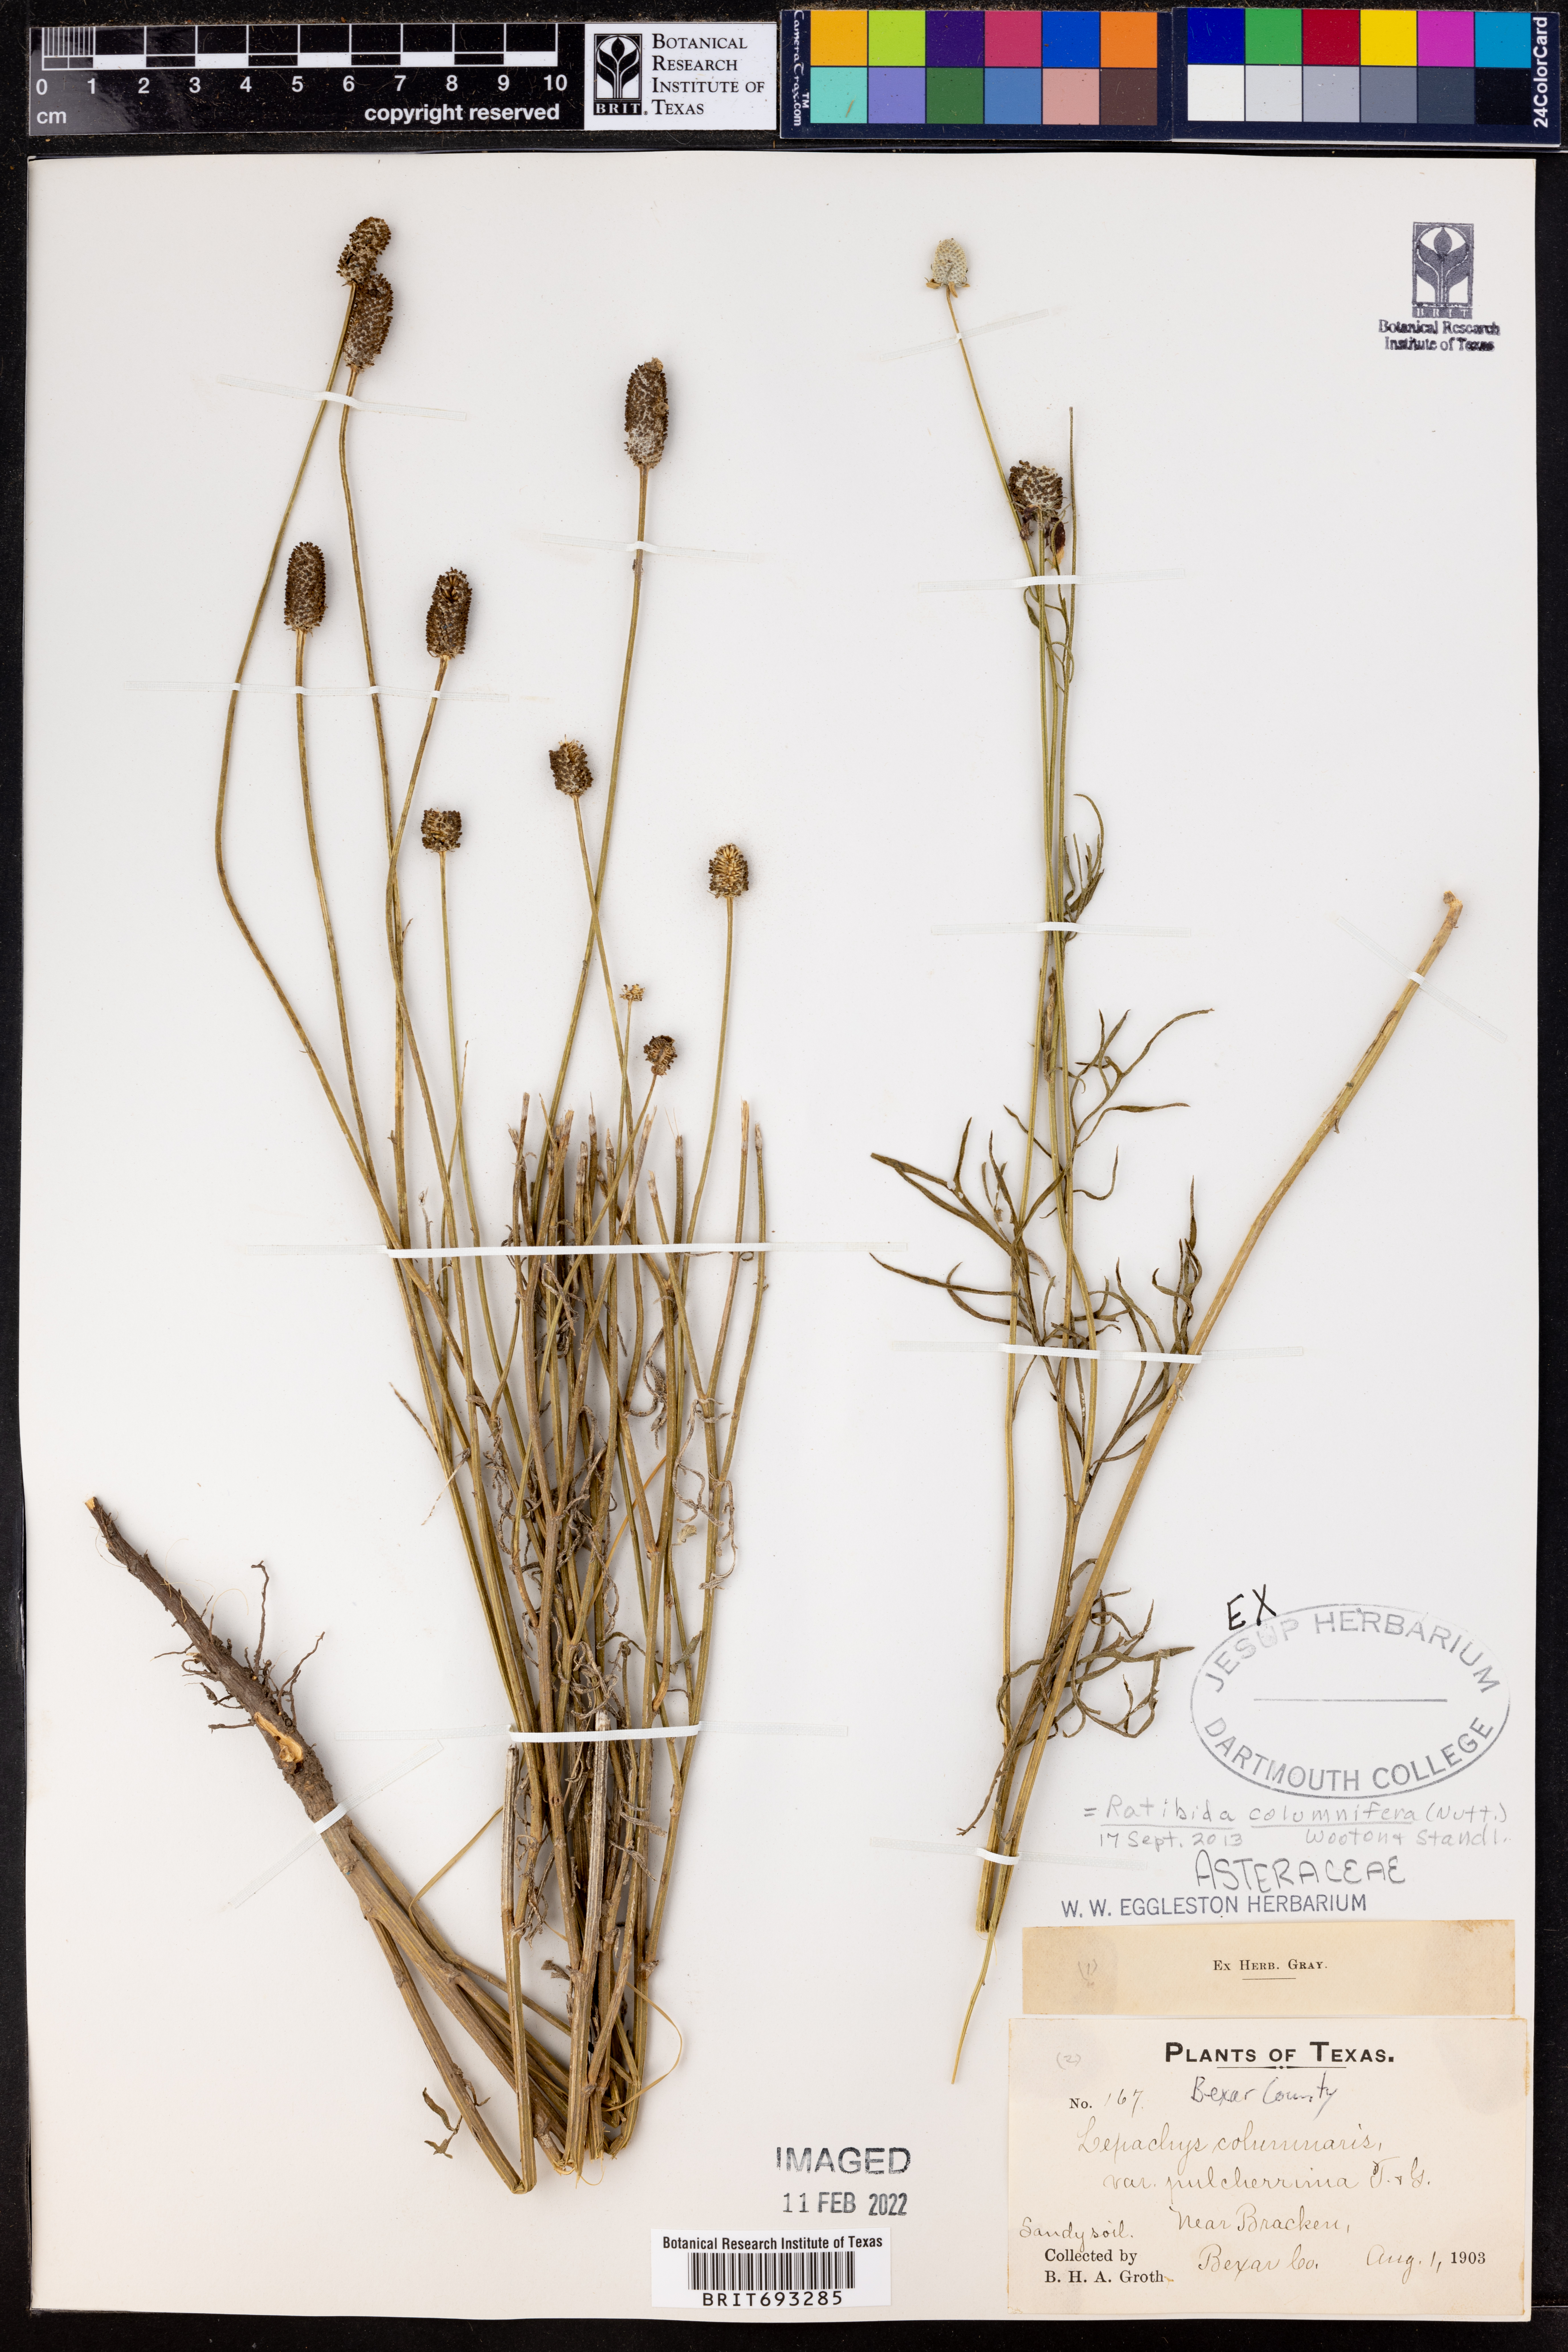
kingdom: Plantae
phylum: Tracheophyta
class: Magnoliopsida
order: Asterales
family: Asteraceae
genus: Ratibida
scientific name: Ratibida columnifera
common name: Prairie coneflower
